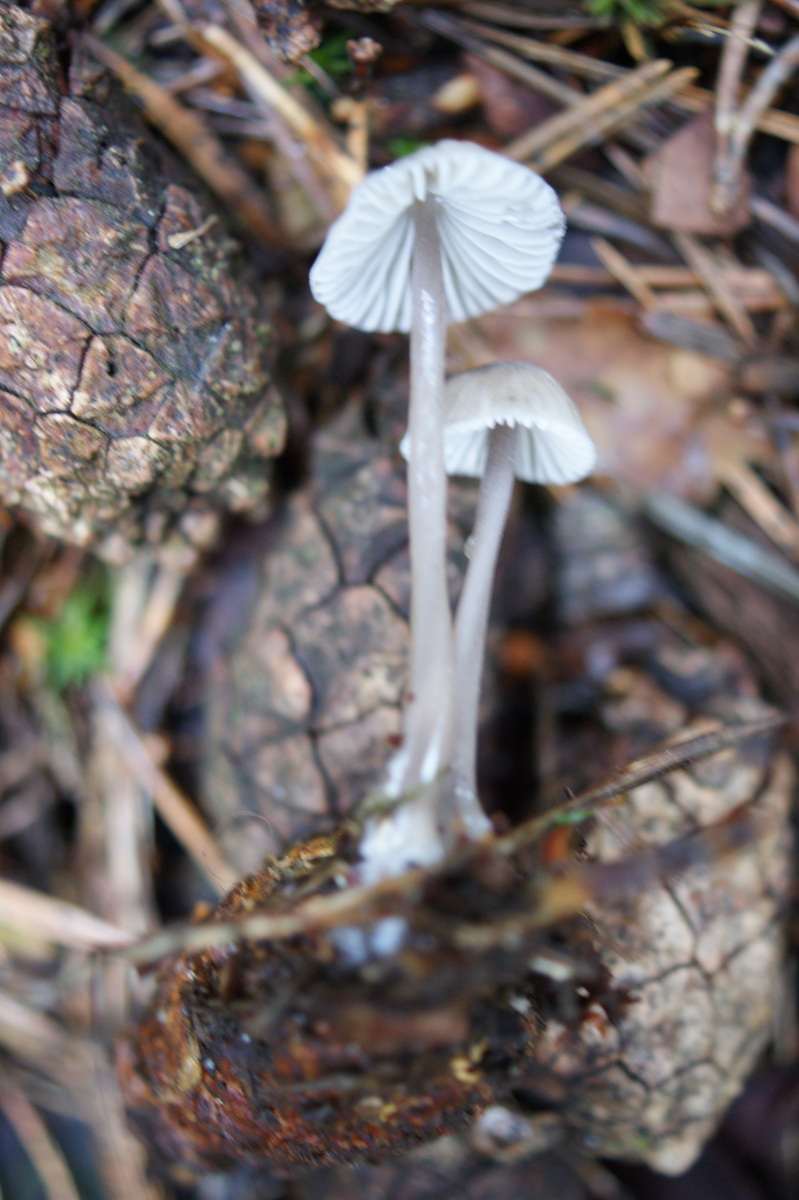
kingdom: Fungi
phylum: Basidiomycota
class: Agaricomycetes
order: Agaricales
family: Mycenaceae
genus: Mycena
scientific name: Mycena
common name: huesvamp
